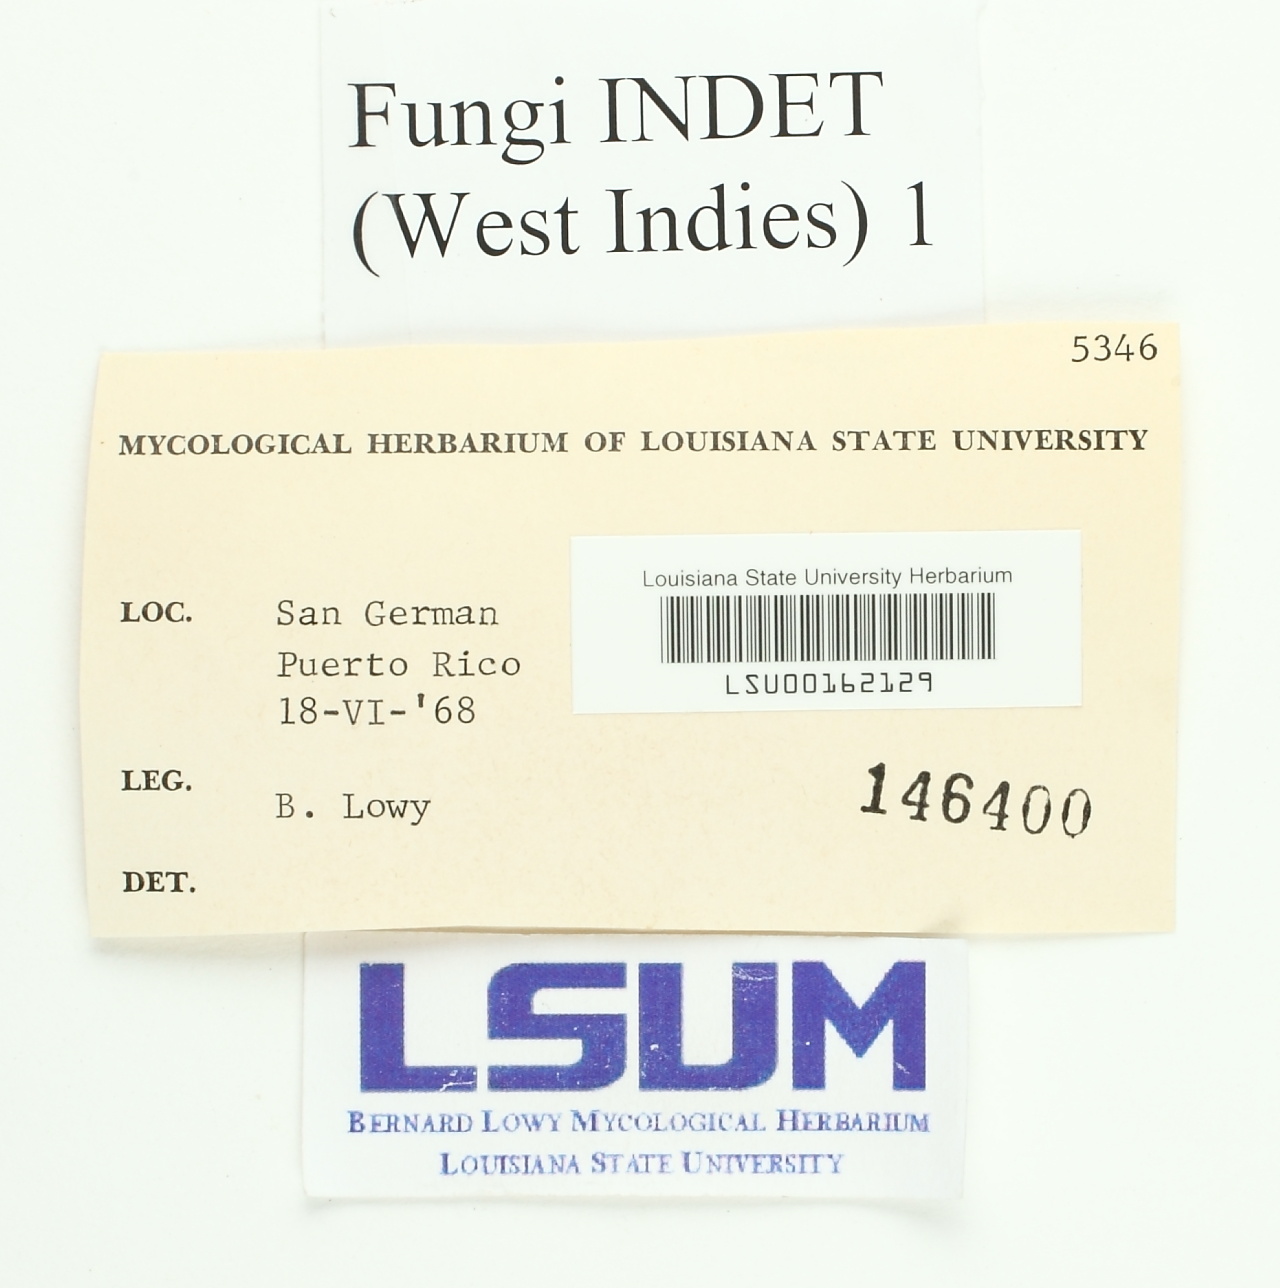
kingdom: Fungi
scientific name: Fungi
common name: Fungi
